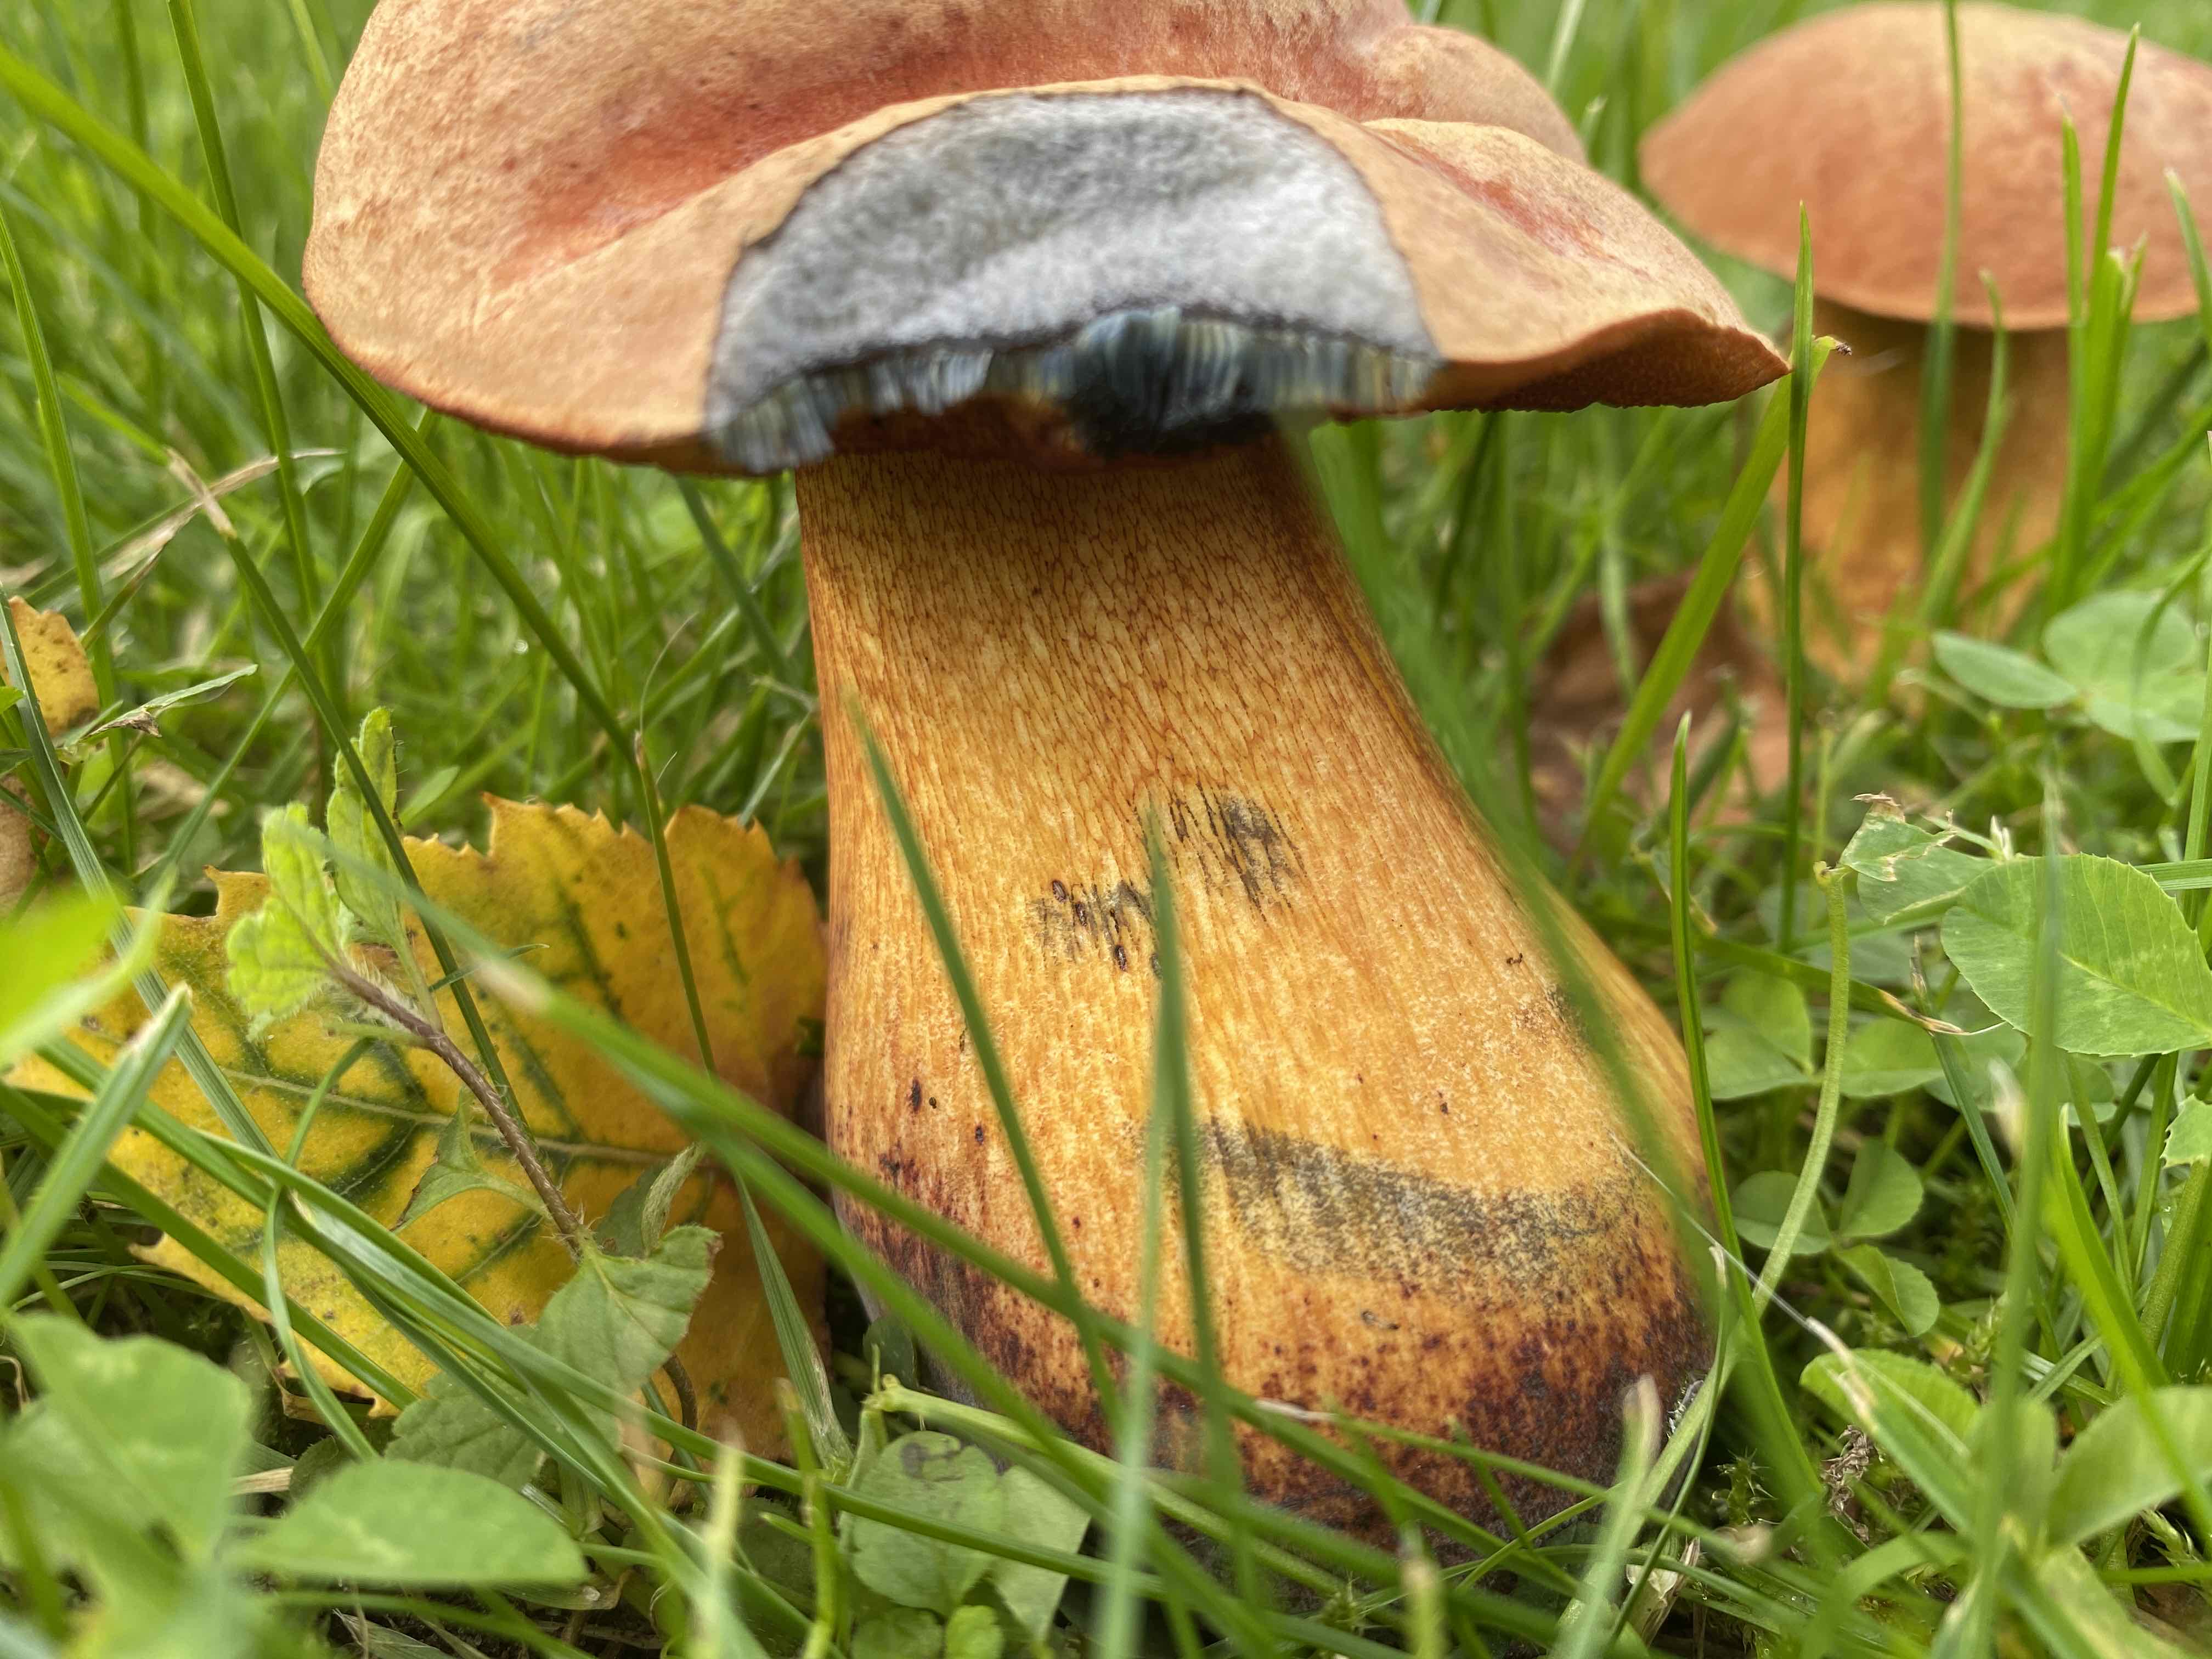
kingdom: Fungi
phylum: Basidiomycota
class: Agaricomycetes
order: Boletales
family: Boletaceae
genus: Suillellus
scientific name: Suillellus luridus
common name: netstokket indigorørhat
